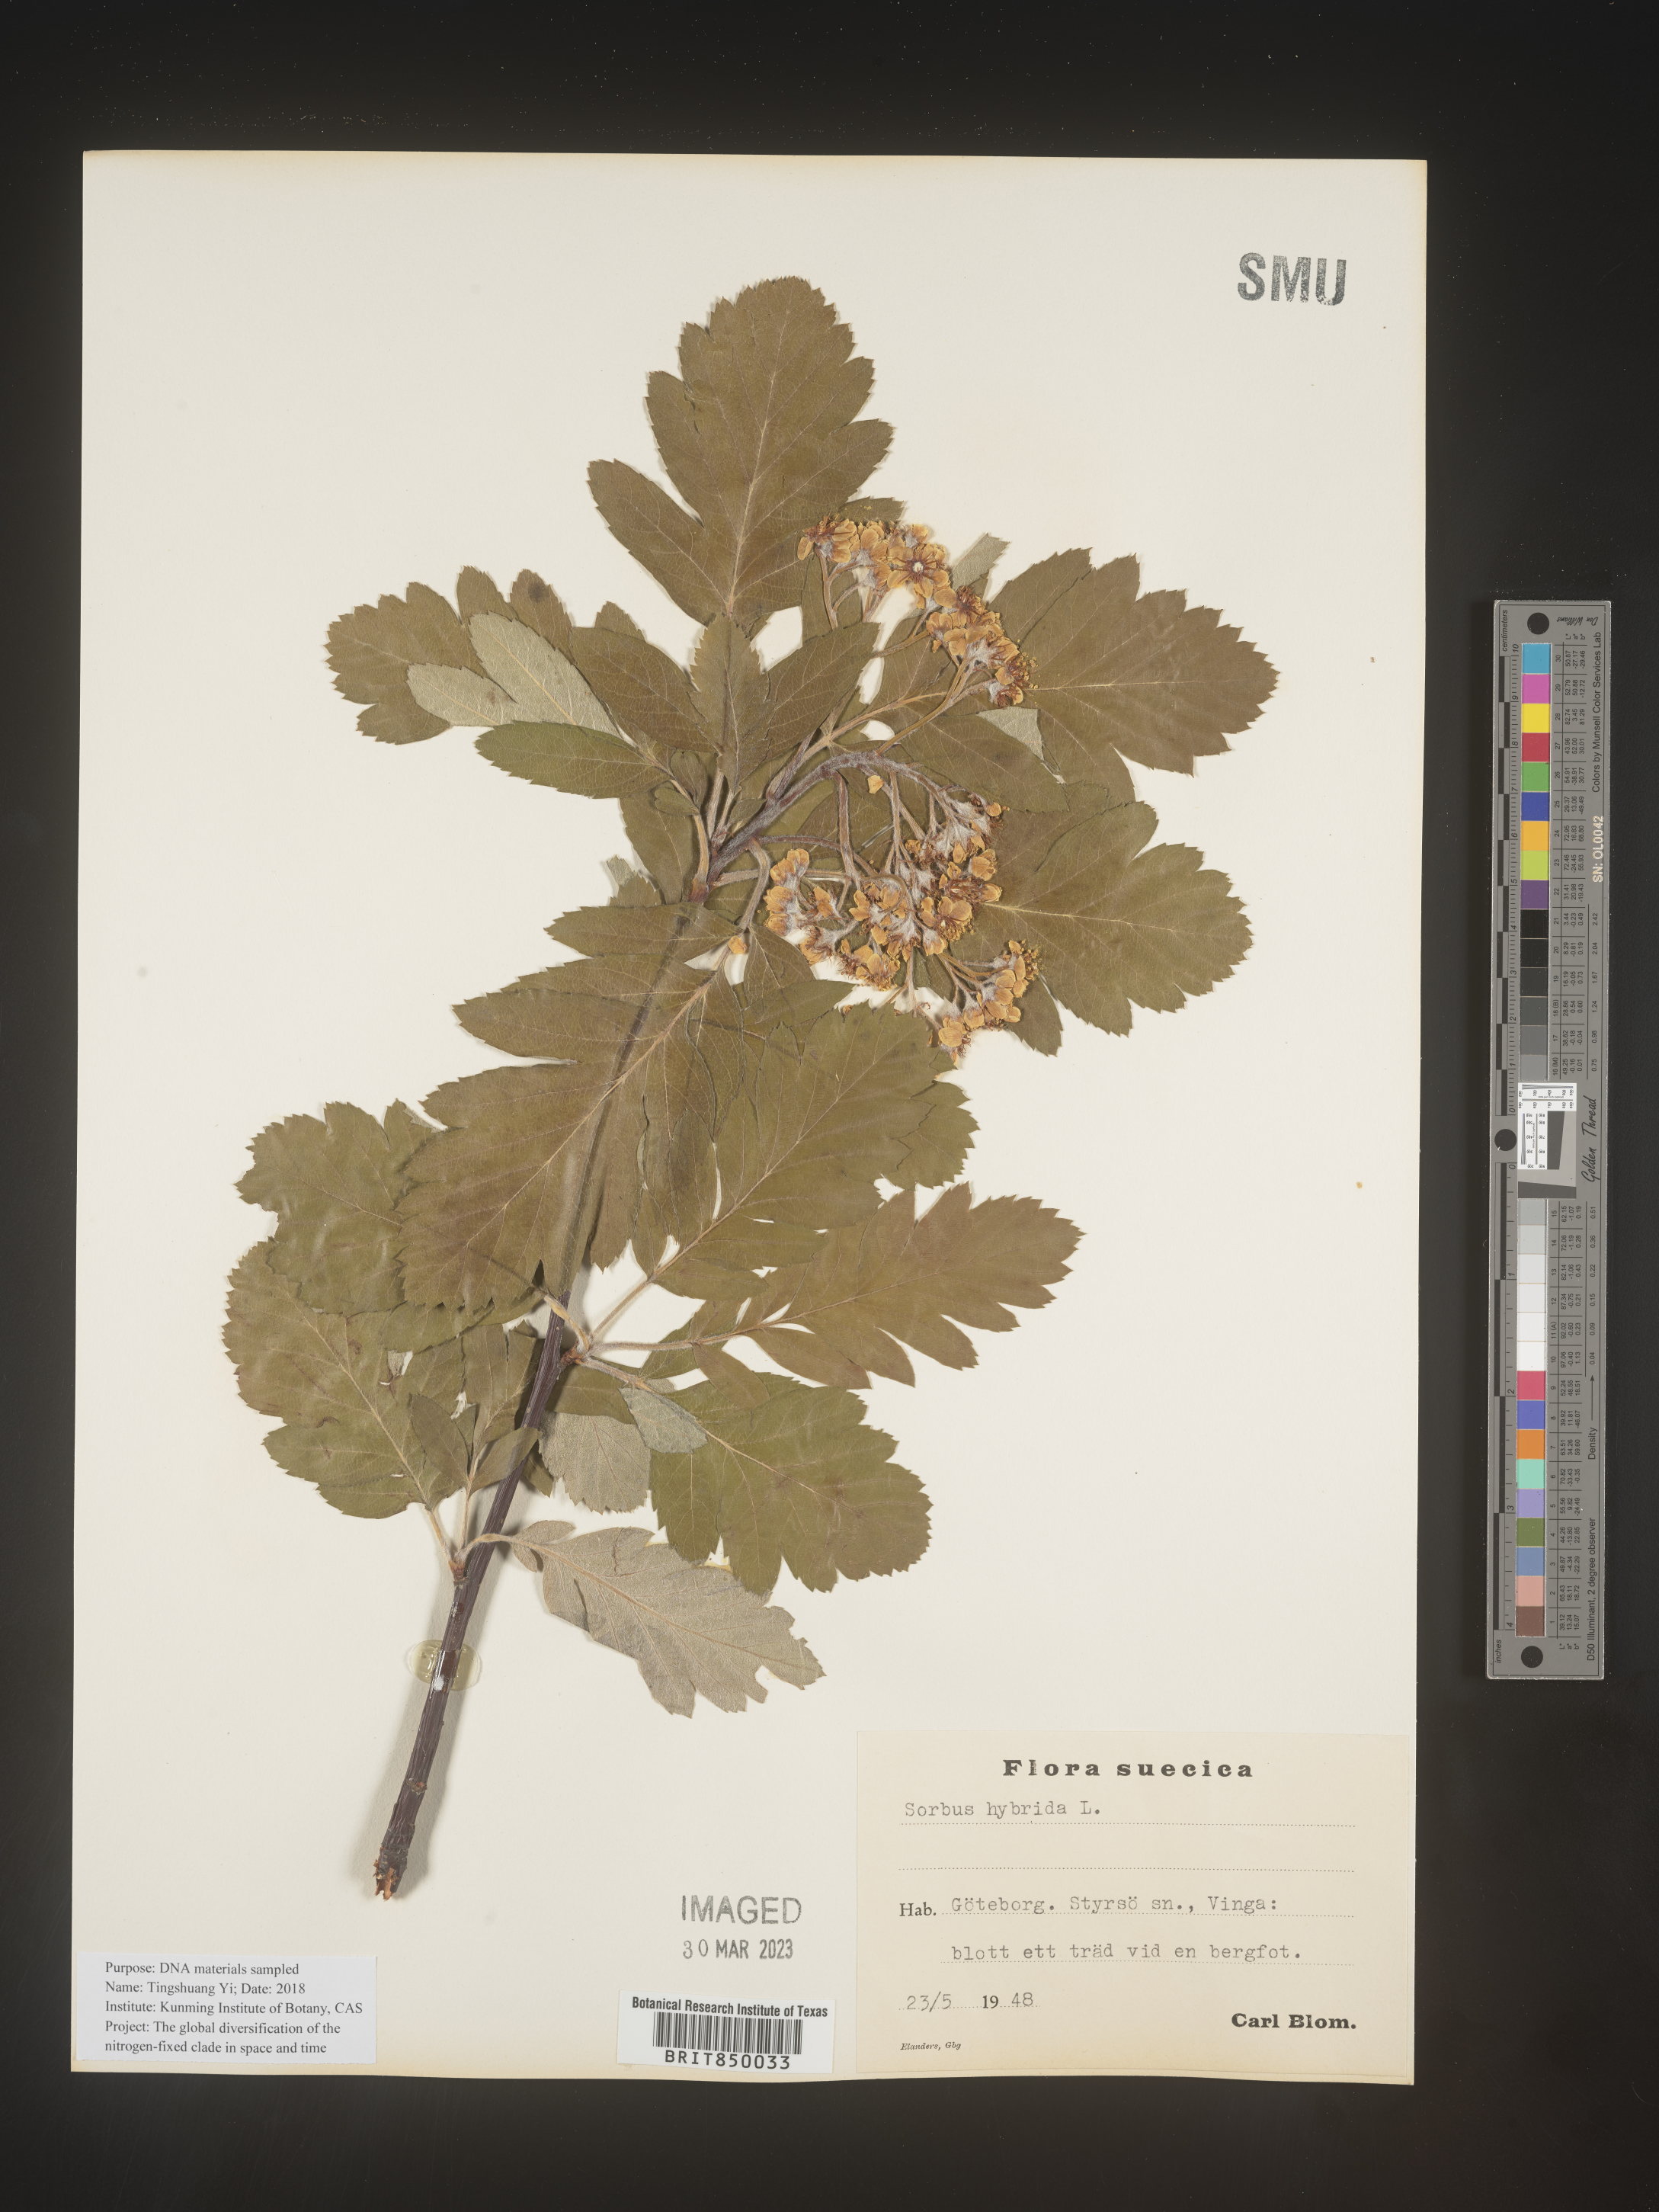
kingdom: Plantae
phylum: Tracheophyta
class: Magnoliopsida
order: Rosales
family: Rosaceae
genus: Sorbus
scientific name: Sorbus
